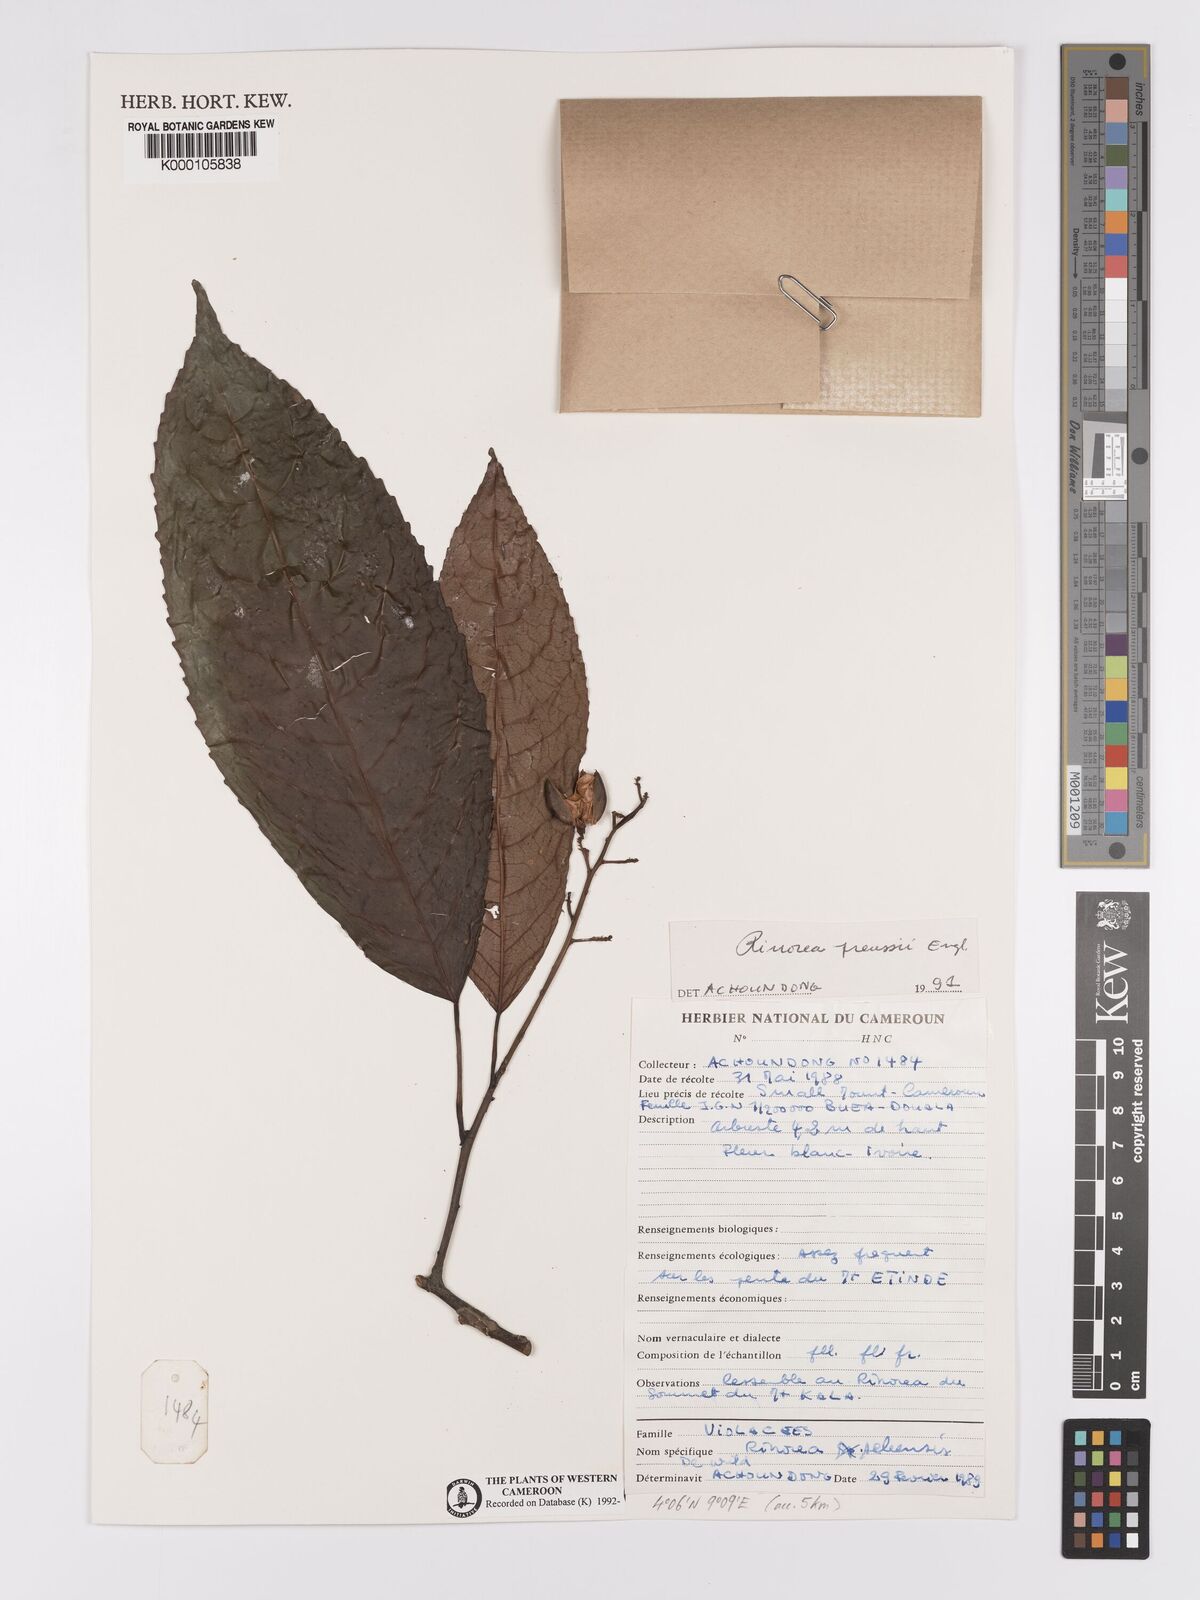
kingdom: Plantae
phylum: Tracheophyta
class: Magnoliopsida
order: Malpighiales
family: Violaceae
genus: Rinorea
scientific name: Rinorea preussii
